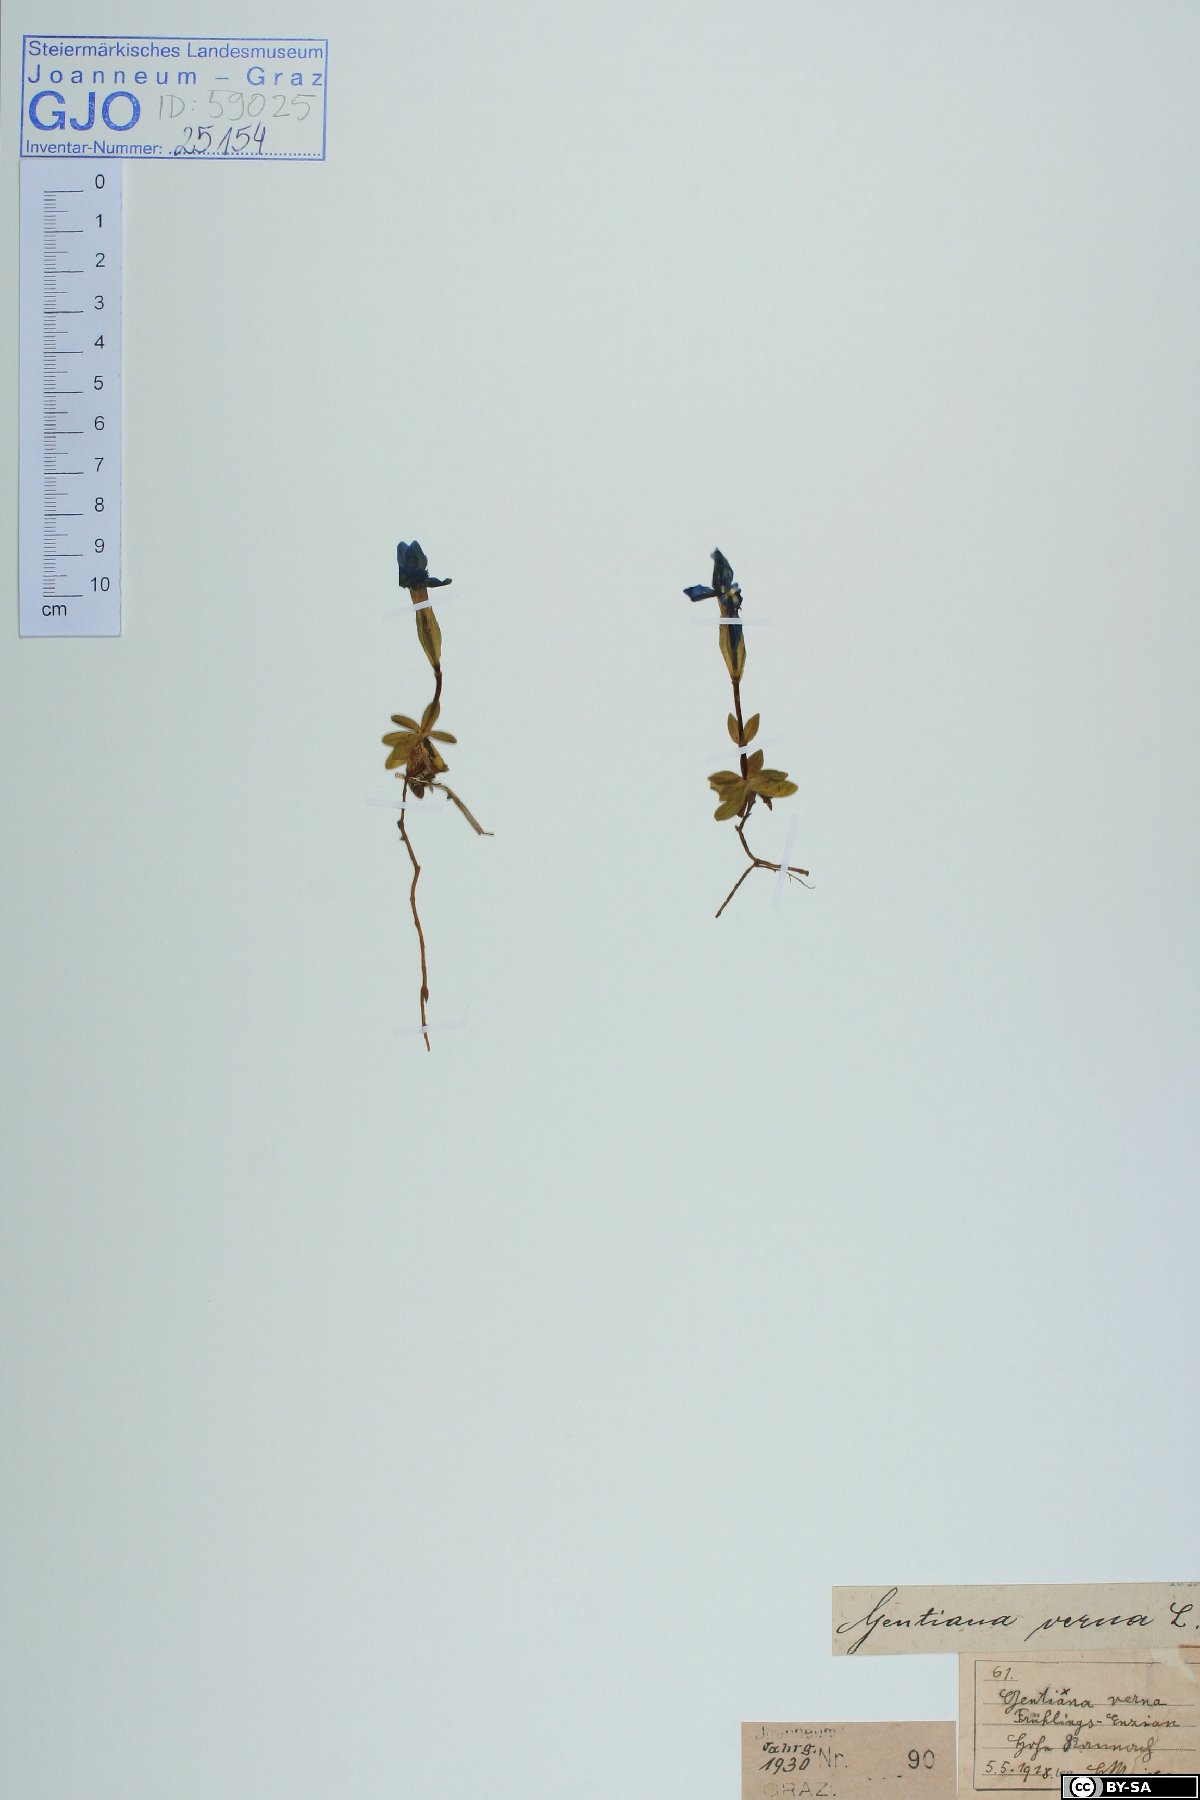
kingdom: Plantae
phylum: Tracheophyta
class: Magnoliopsida
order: Gentianales
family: Gentianaceae
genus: Gentiana
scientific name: Gentiana verna
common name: Spring gentian
